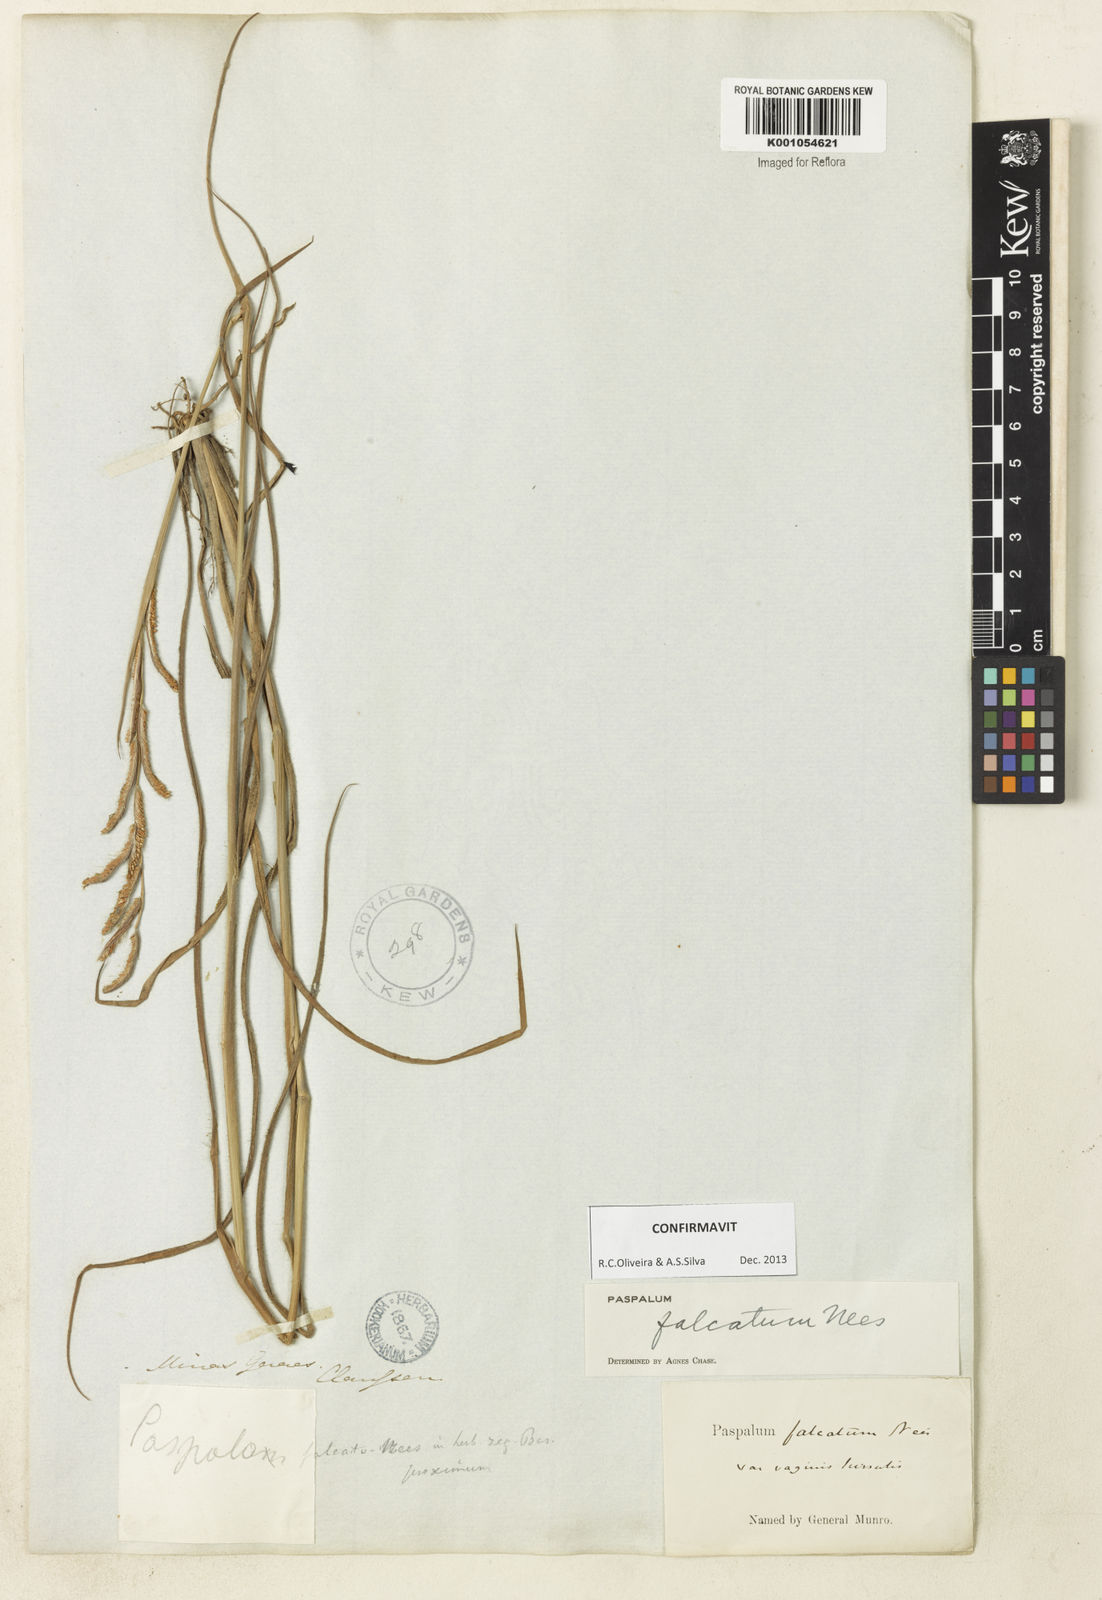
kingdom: Plantae
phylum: Tracheophyta
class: Liliopsida
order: Poales
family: Poaceae
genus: Paspalum
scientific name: Paspalum falcatum
